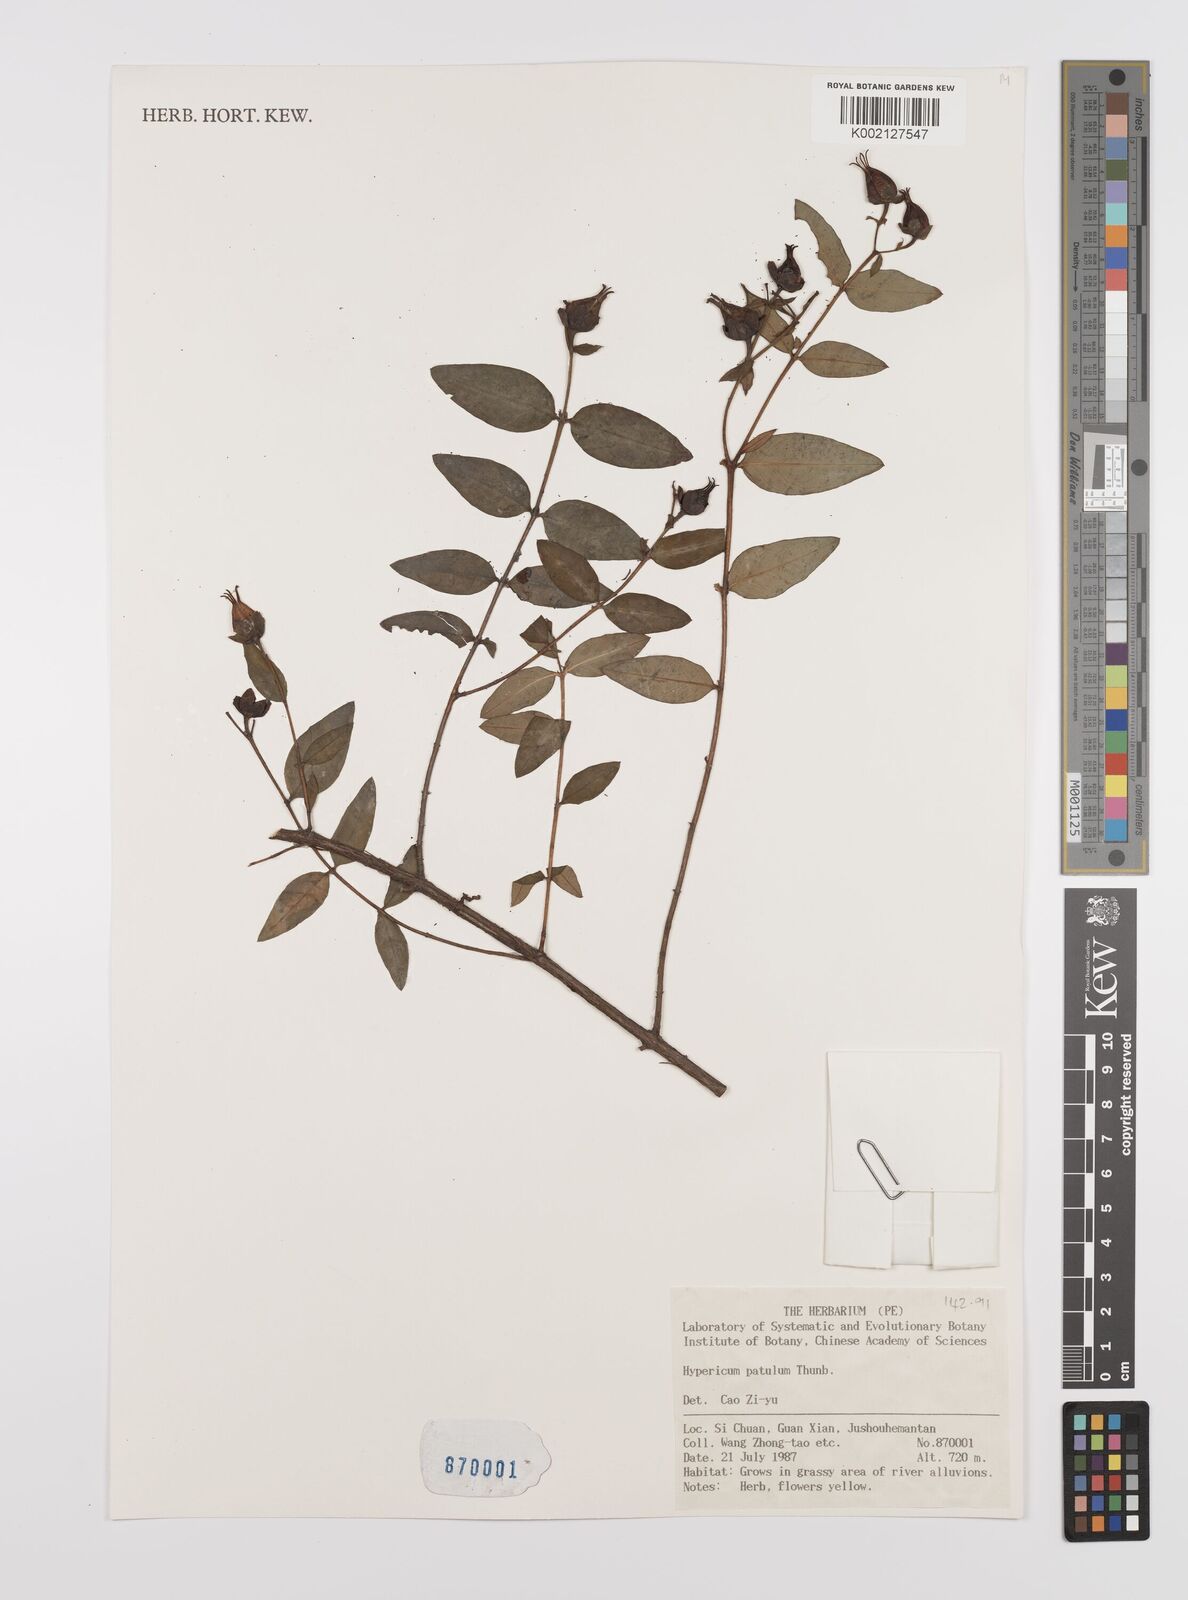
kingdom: Plantae
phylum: Tracheophyta
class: Magnoliopsida
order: Malpighiales
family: Hypericaceae
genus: Hypericum
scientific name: Hypericum patulum
